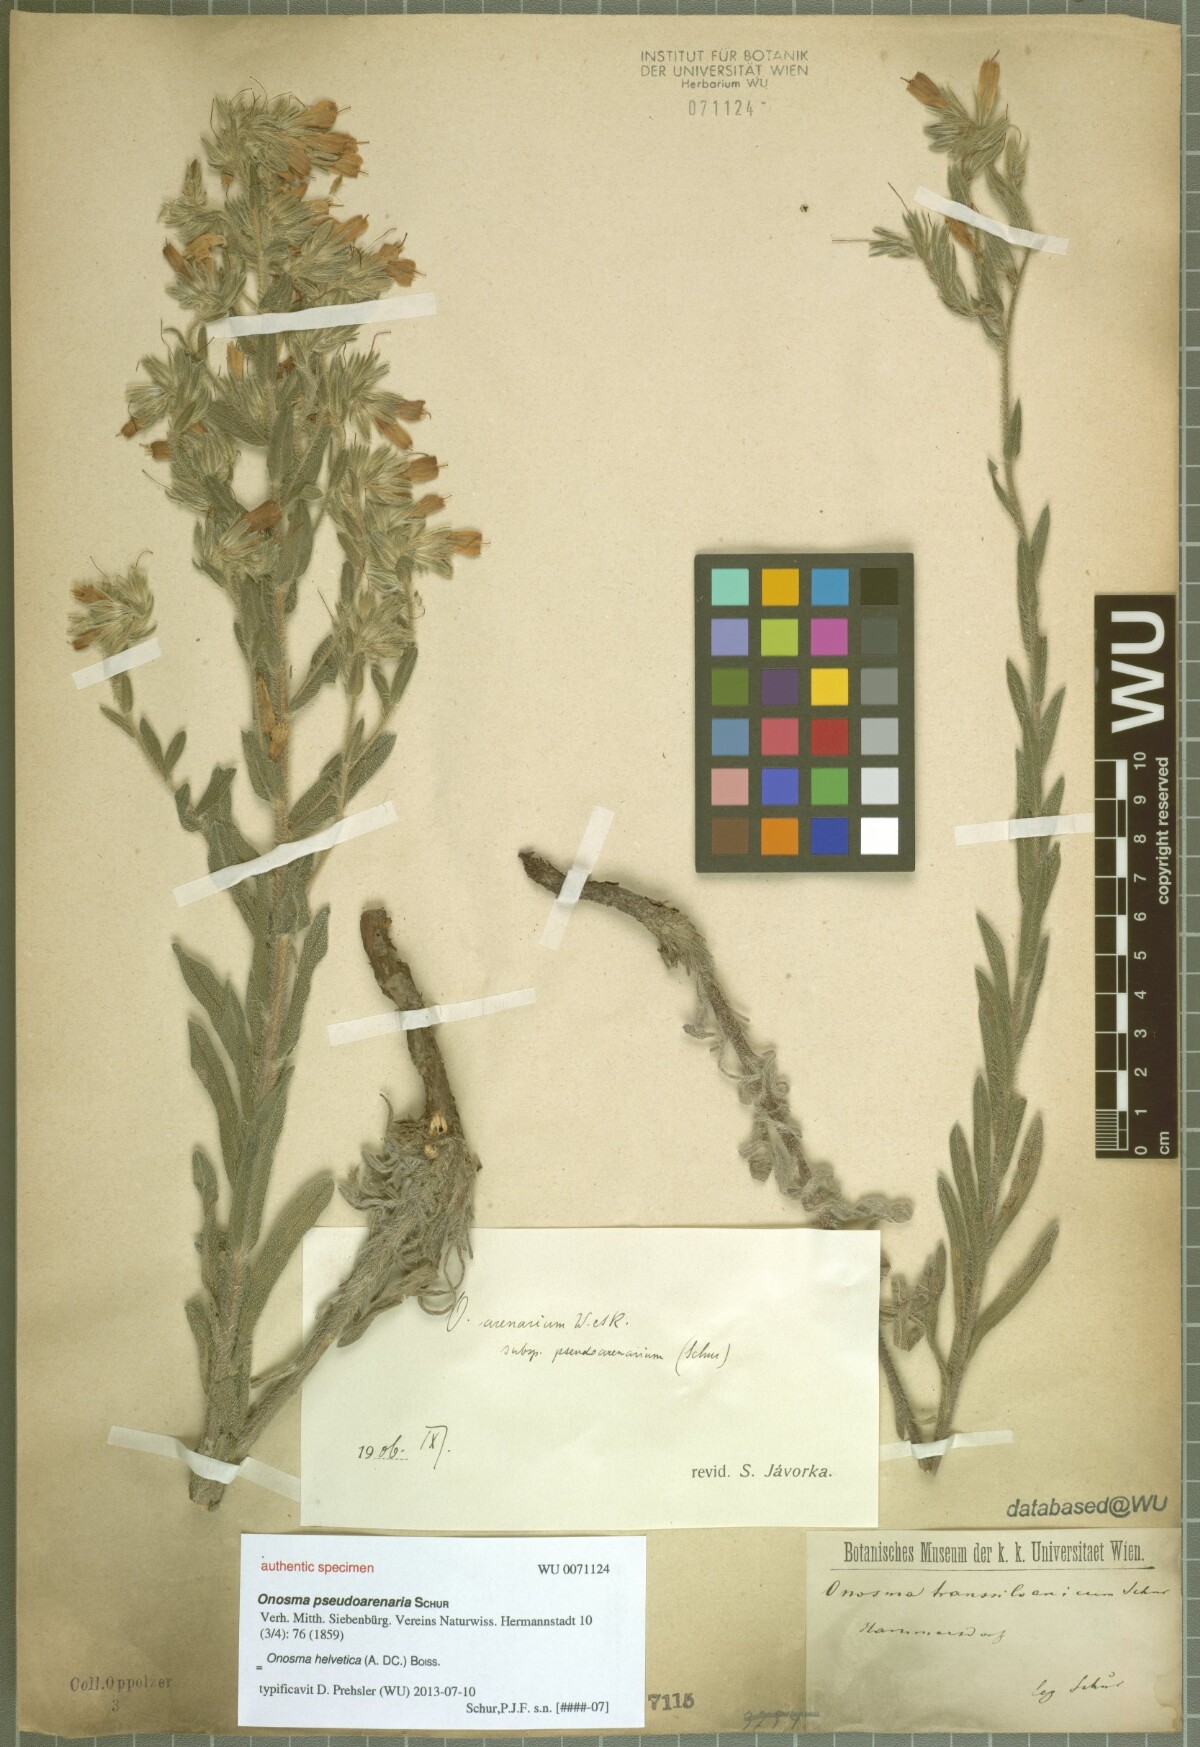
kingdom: Plantae
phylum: Tracheophyta
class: Magnoliopsida
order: Boraginales
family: Boraginaceae
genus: Onosma
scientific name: Onosma pseudoarenaria
